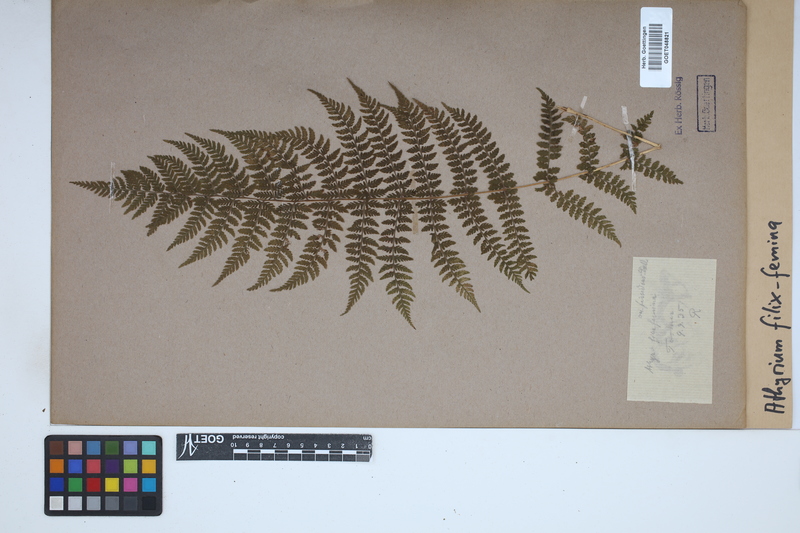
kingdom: Plantae
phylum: Tracheophyta
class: Polypodiopsida
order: Polypodiales
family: Athyriaceae
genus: Athyrium
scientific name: Athyrium filix-femina
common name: Lady fern
